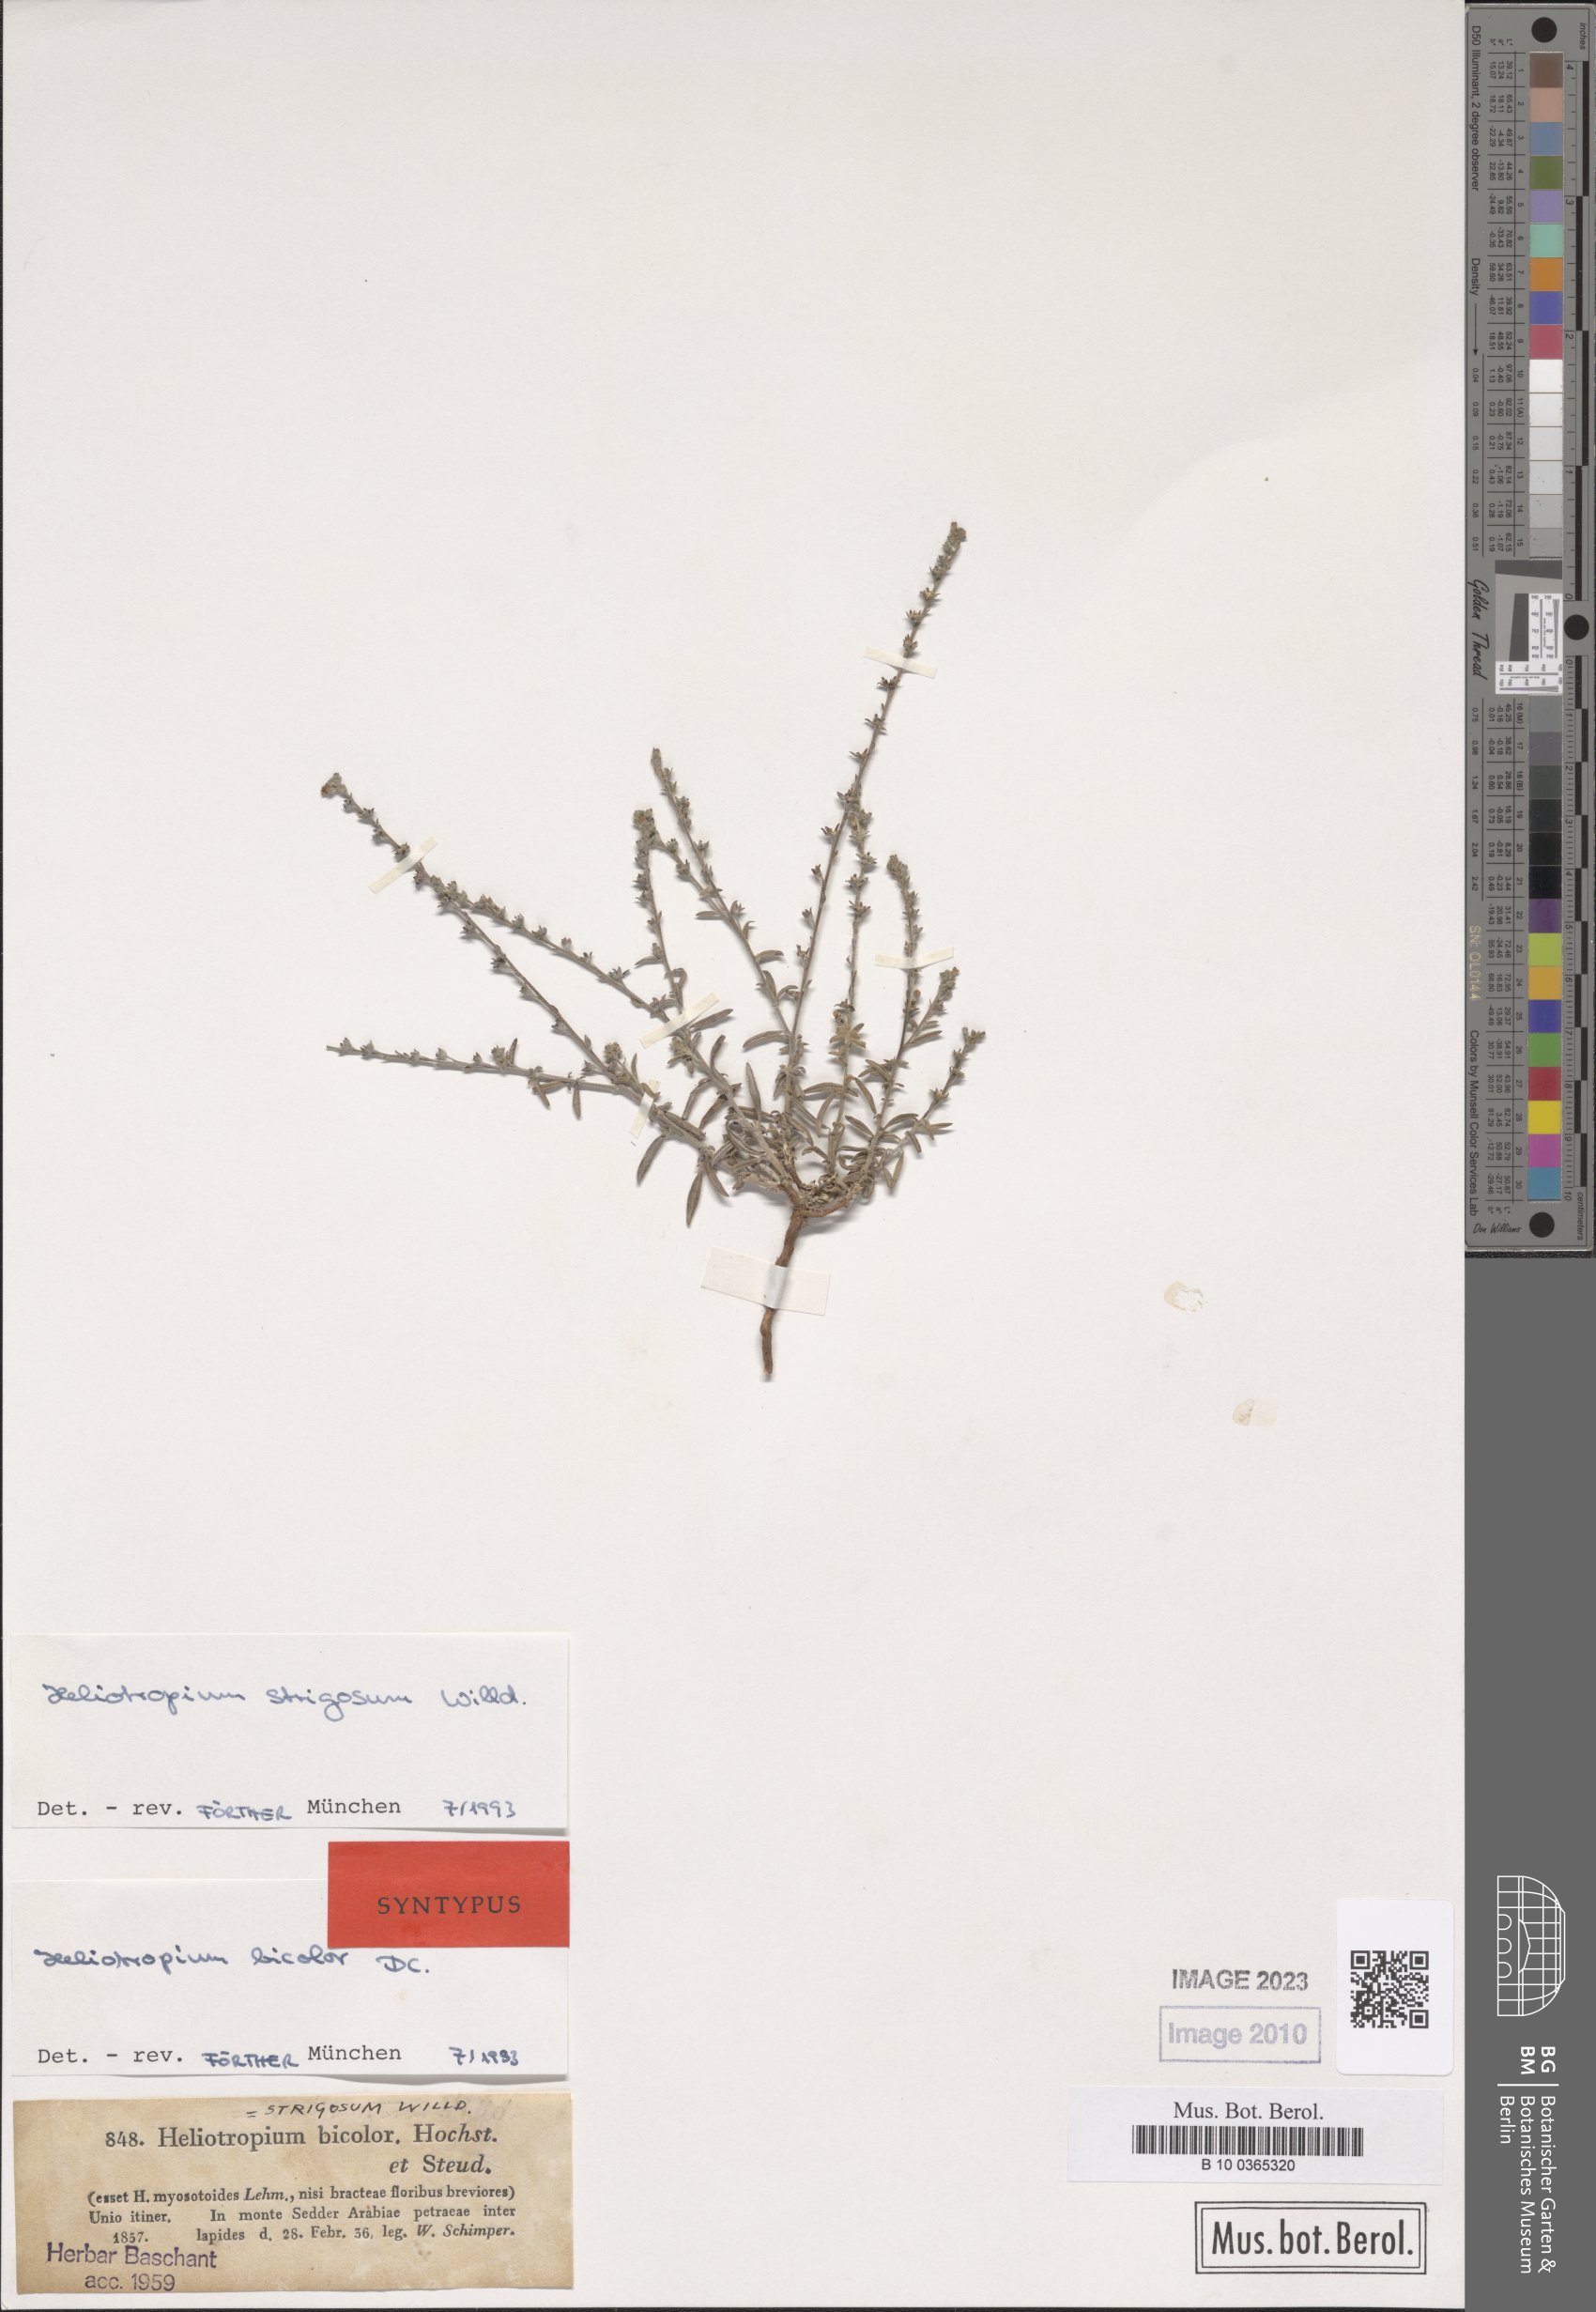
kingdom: Plantae
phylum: Tracheophyta
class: Magnoliopsida
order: Boraginales
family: Heliotropiaceae
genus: Euploca
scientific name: Euploca strigosa
